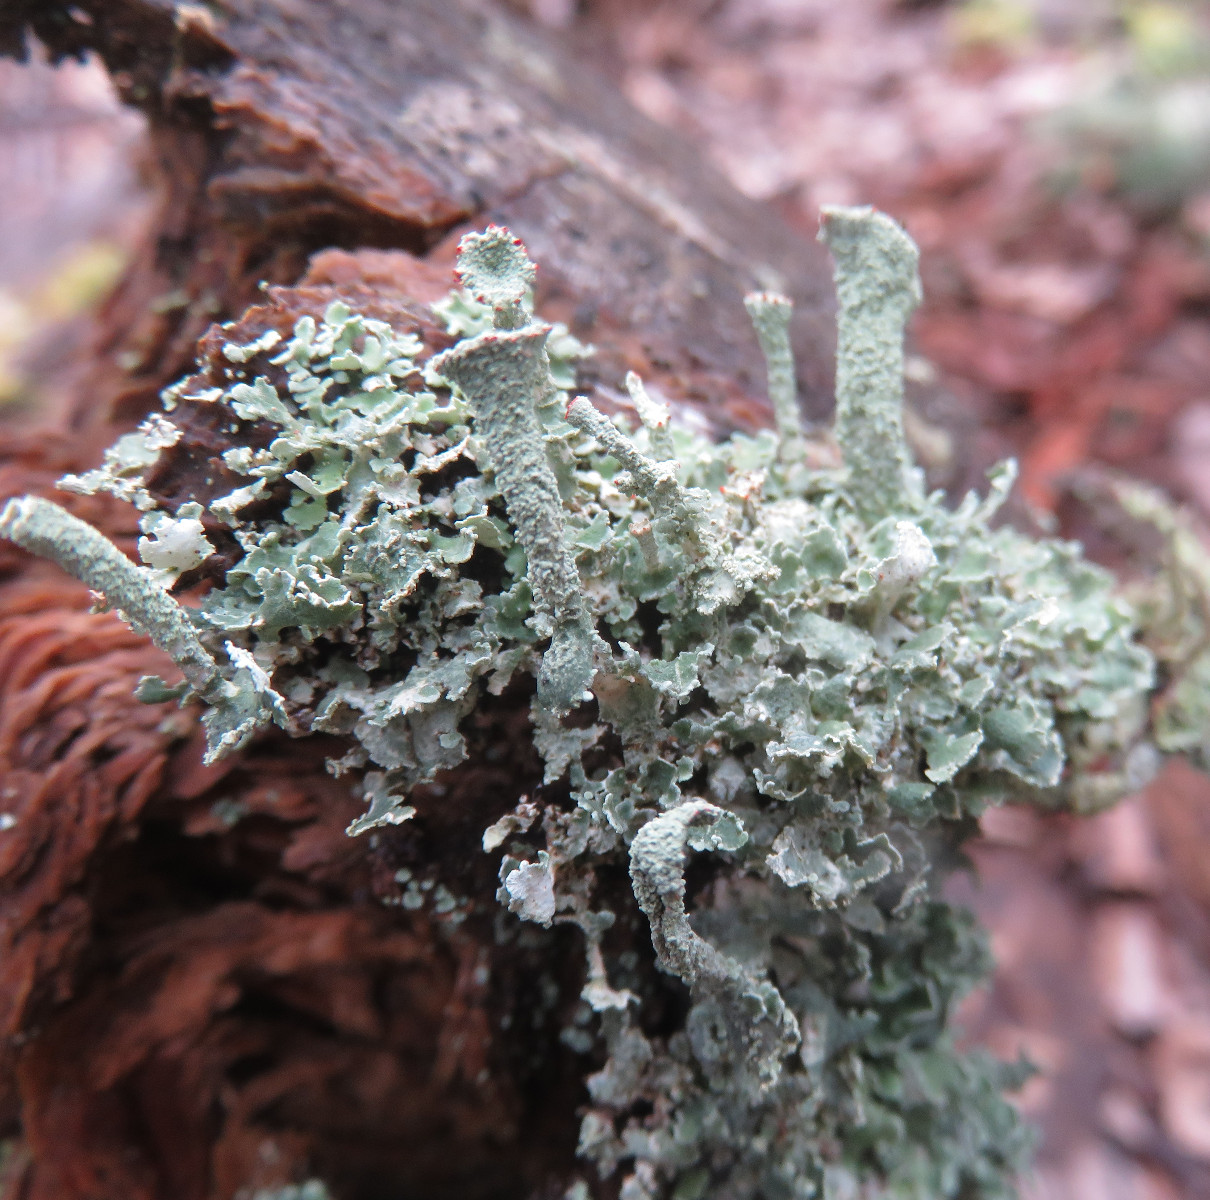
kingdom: Fungi
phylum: Ascomycota
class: Lecanoromycetes
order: Lecanorales
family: Cladoniaceae
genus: Cladonia
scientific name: Cladonia digitata
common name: finger-bægerlav
